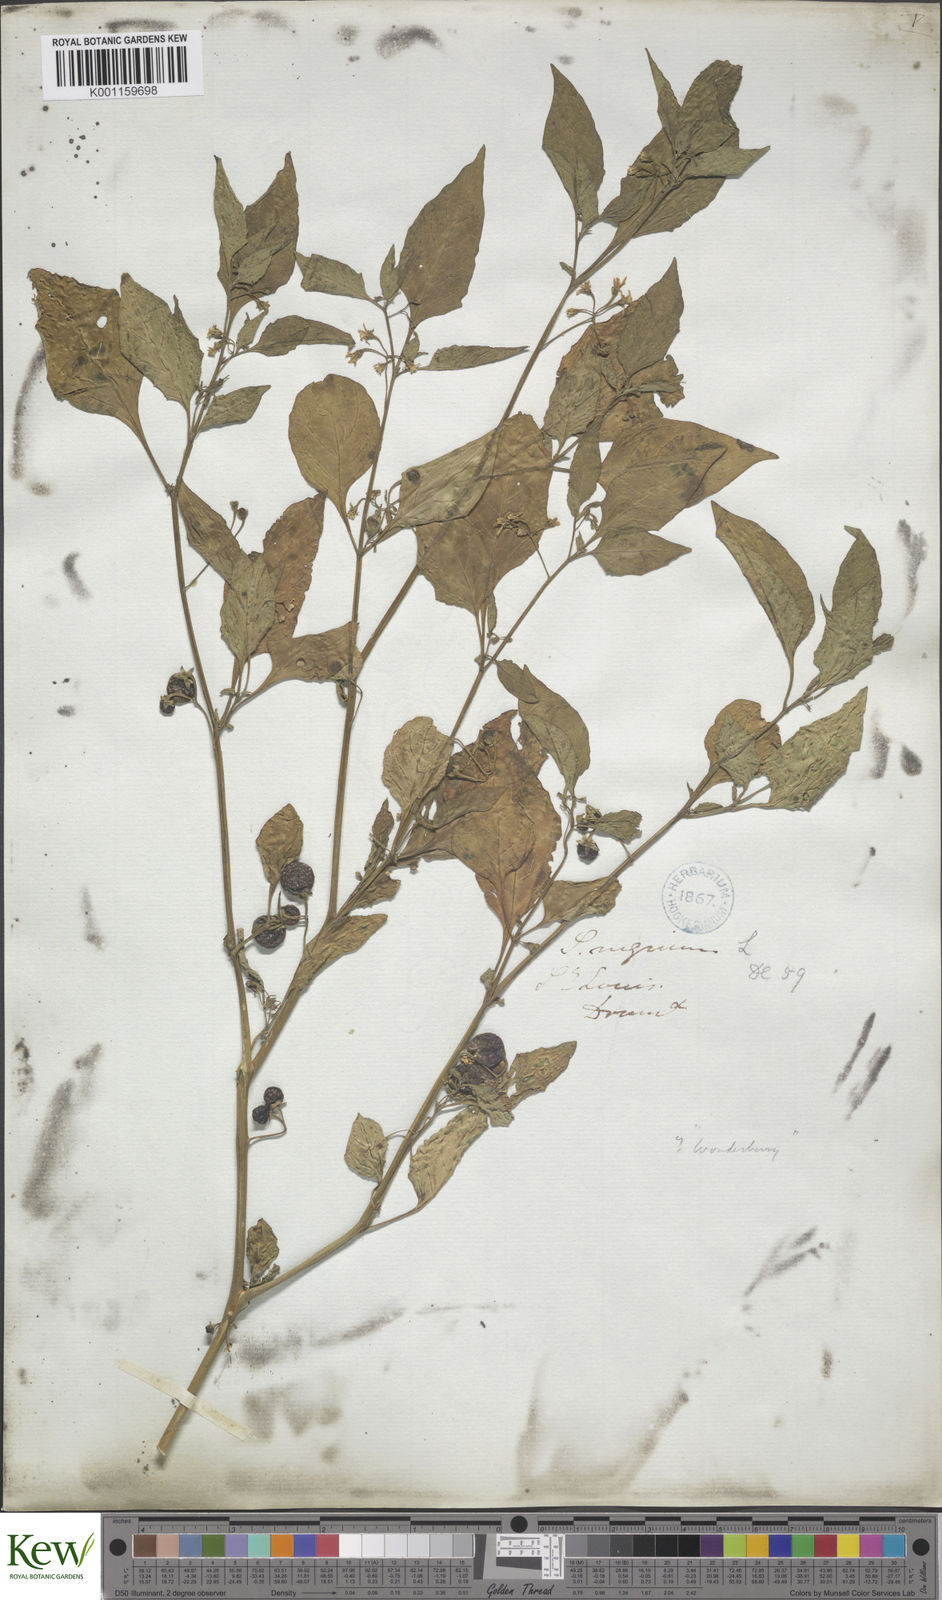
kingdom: Plantae
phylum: Tracheophyta
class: Magnoliopsida
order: Solanales
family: Solanaceae
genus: Solanum
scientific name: Solanum emulans
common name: Eastern black nightshade
